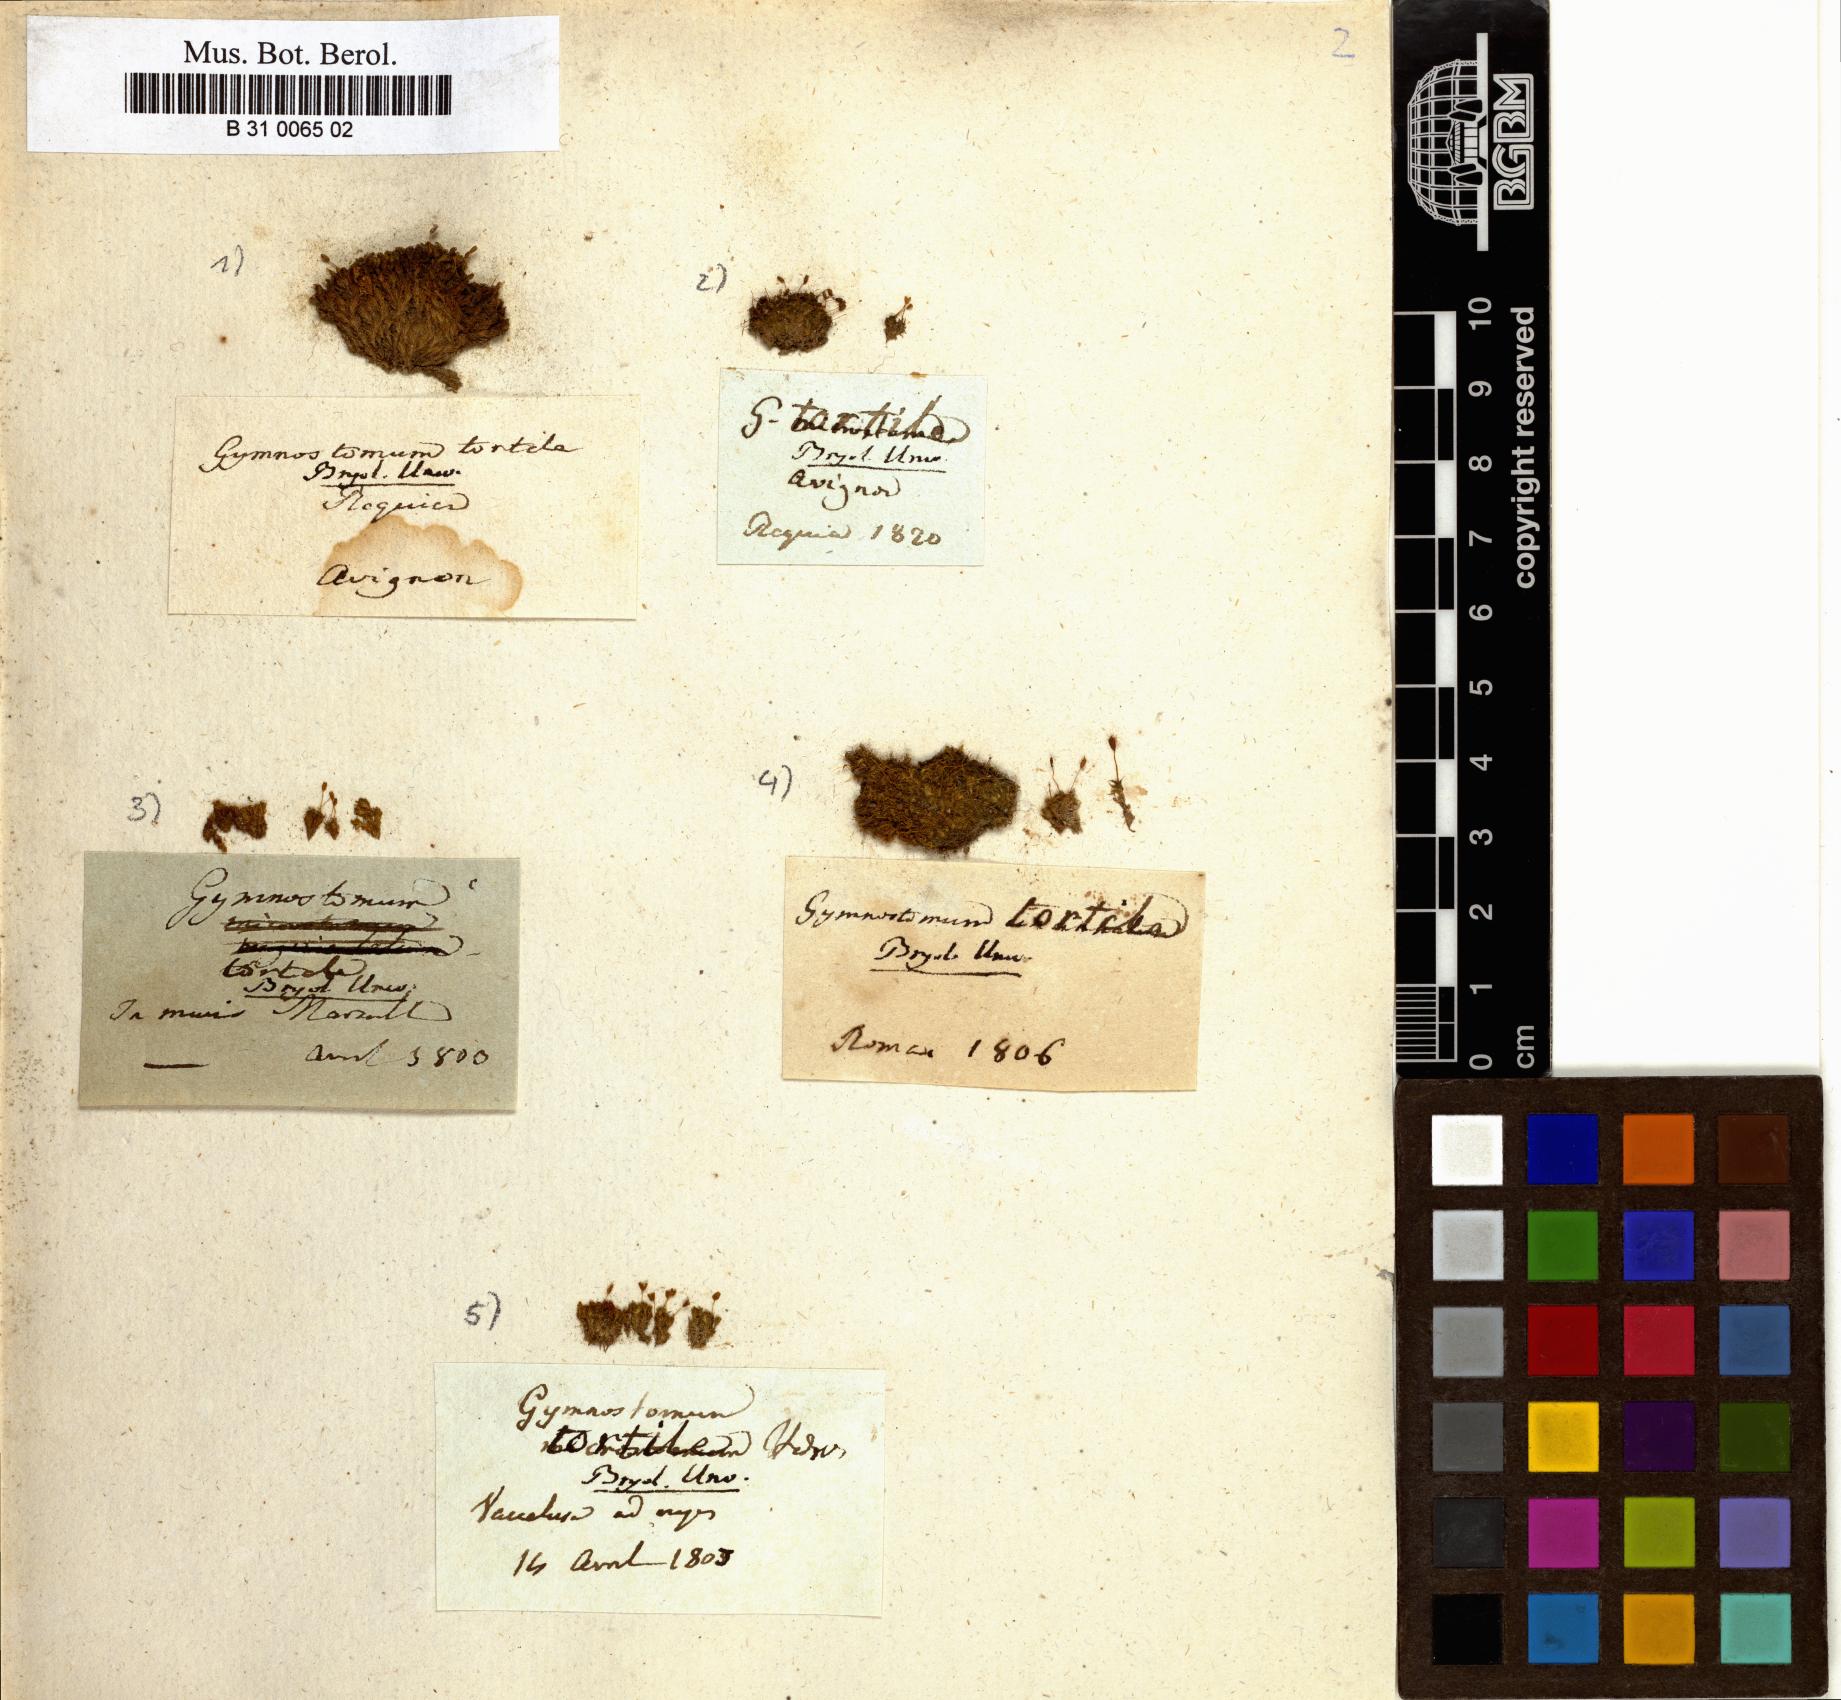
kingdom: Plantae
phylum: Bryophyta
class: Bryopsida
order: Pottiales
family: Pottiaceae
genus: Weissia
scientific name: Weissia condensa
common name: Curly beardless-moss
